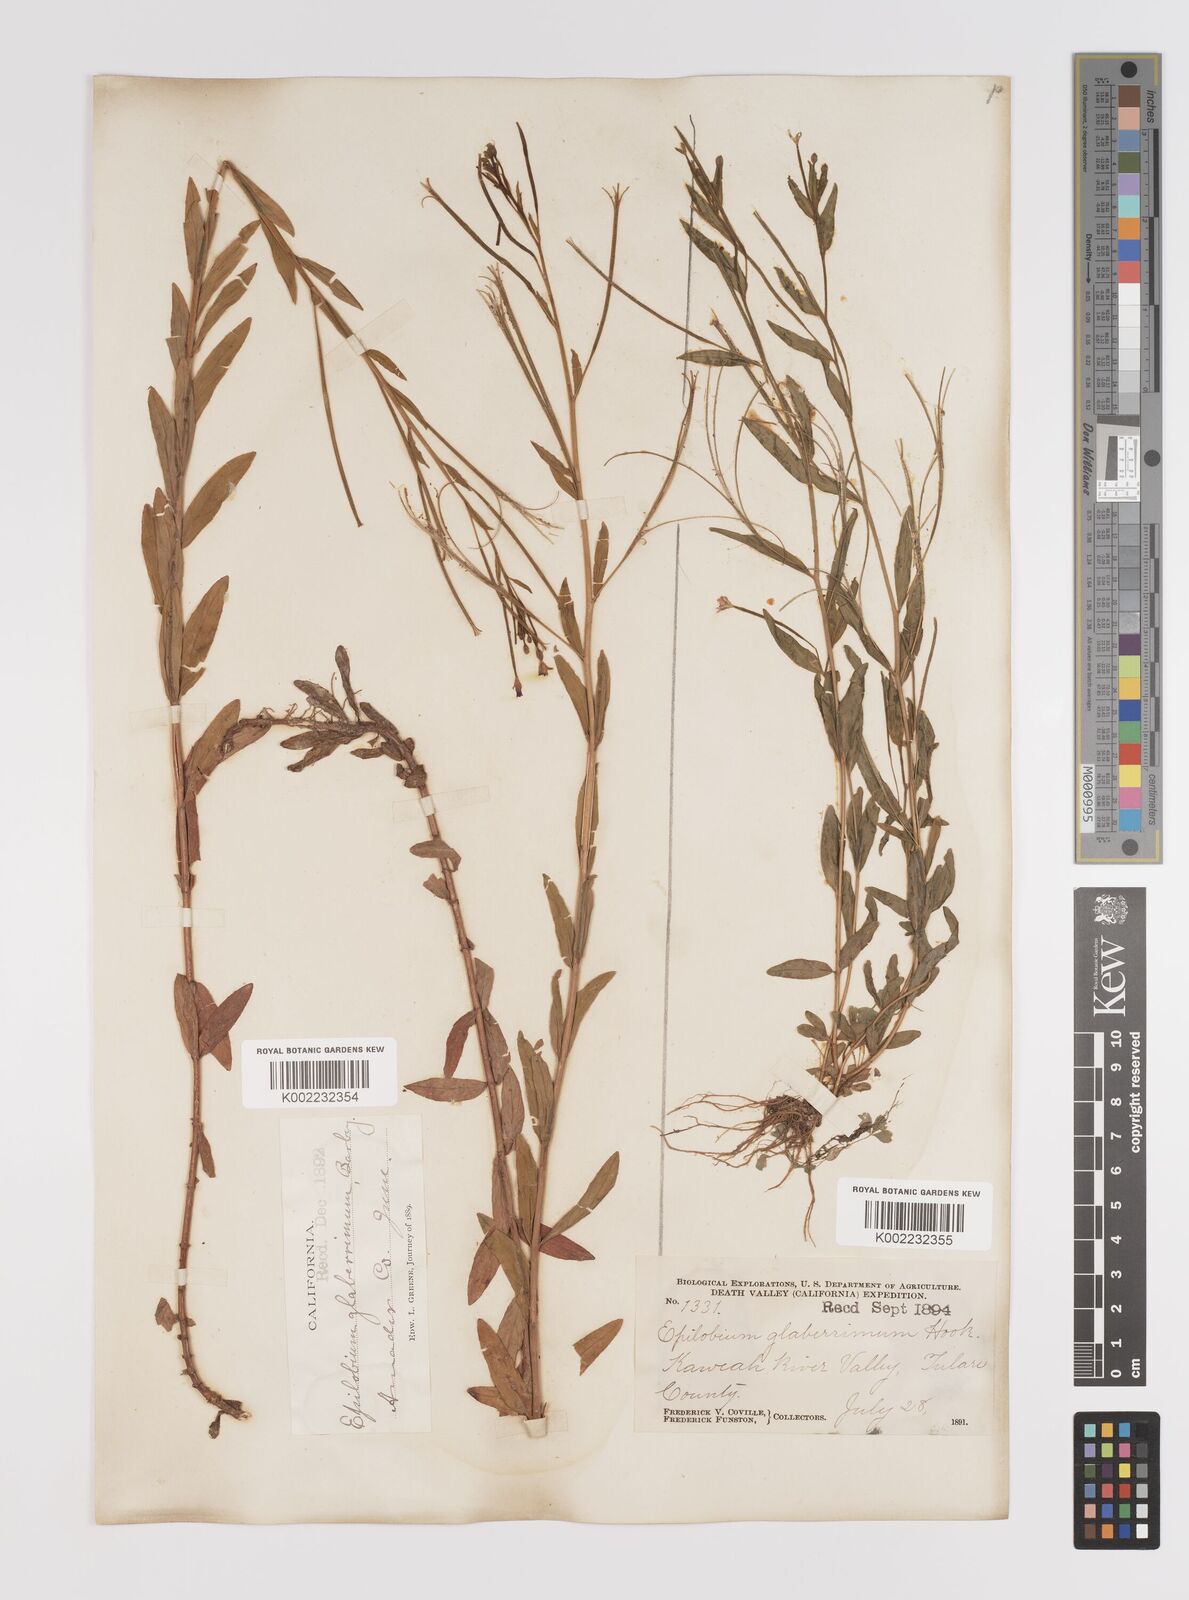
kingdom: Plantae
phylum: Tracheophyta
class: Magnoliopsida
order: Myrtales
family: Onagraceae
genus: Epilobium
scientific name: Epilobium glaberrimum
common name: Glaucous willowherb
